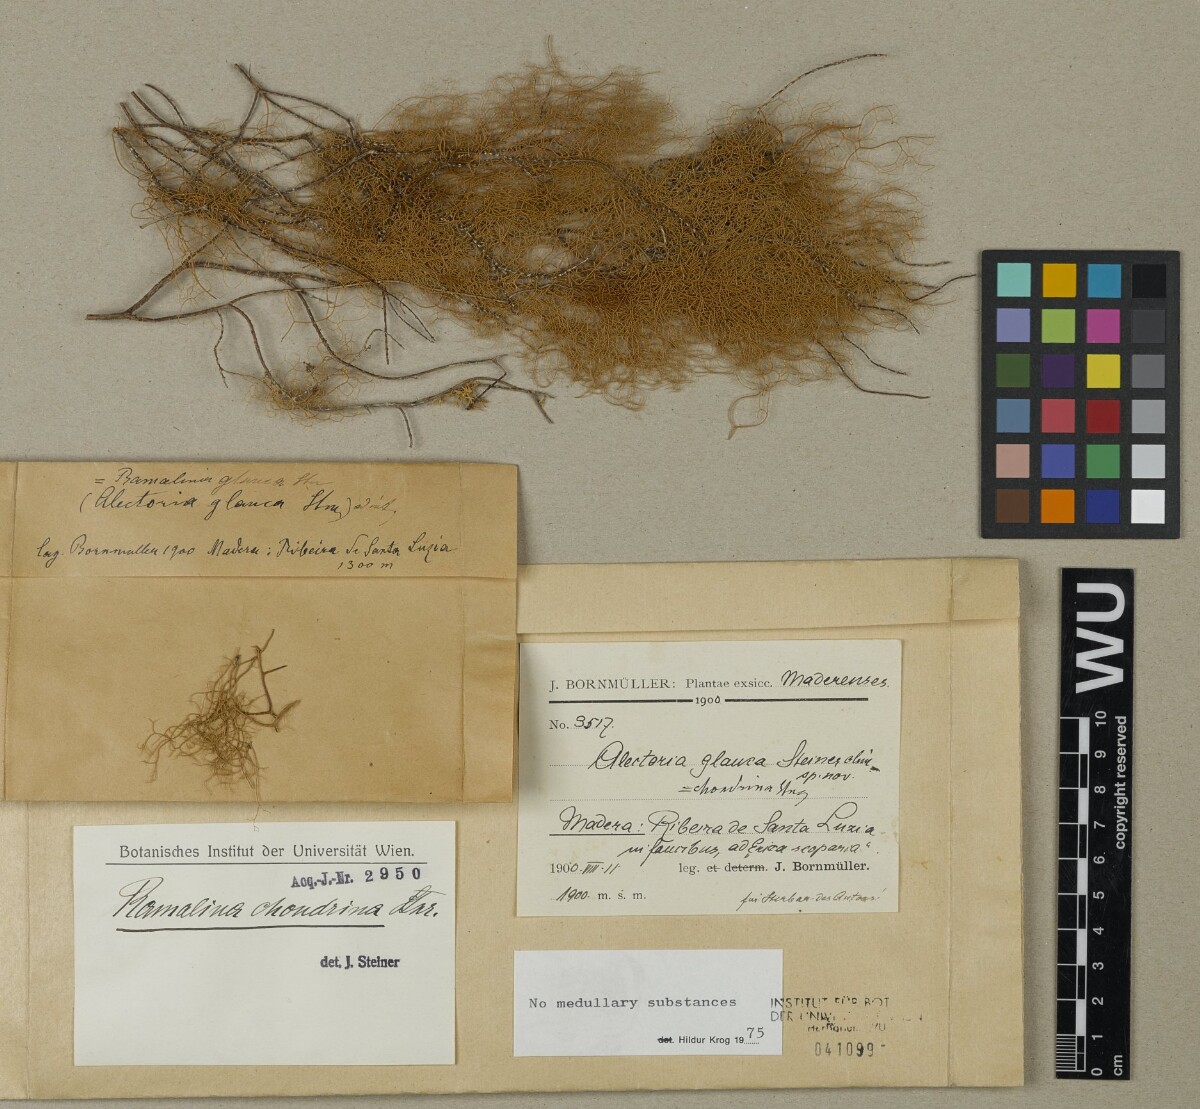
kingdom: Fungi
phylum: Ascomycota
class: Lecanoromycetes
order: Lecanorales
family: Ramalinaceae
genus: Ramalina
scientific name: Ramalina chondrina
